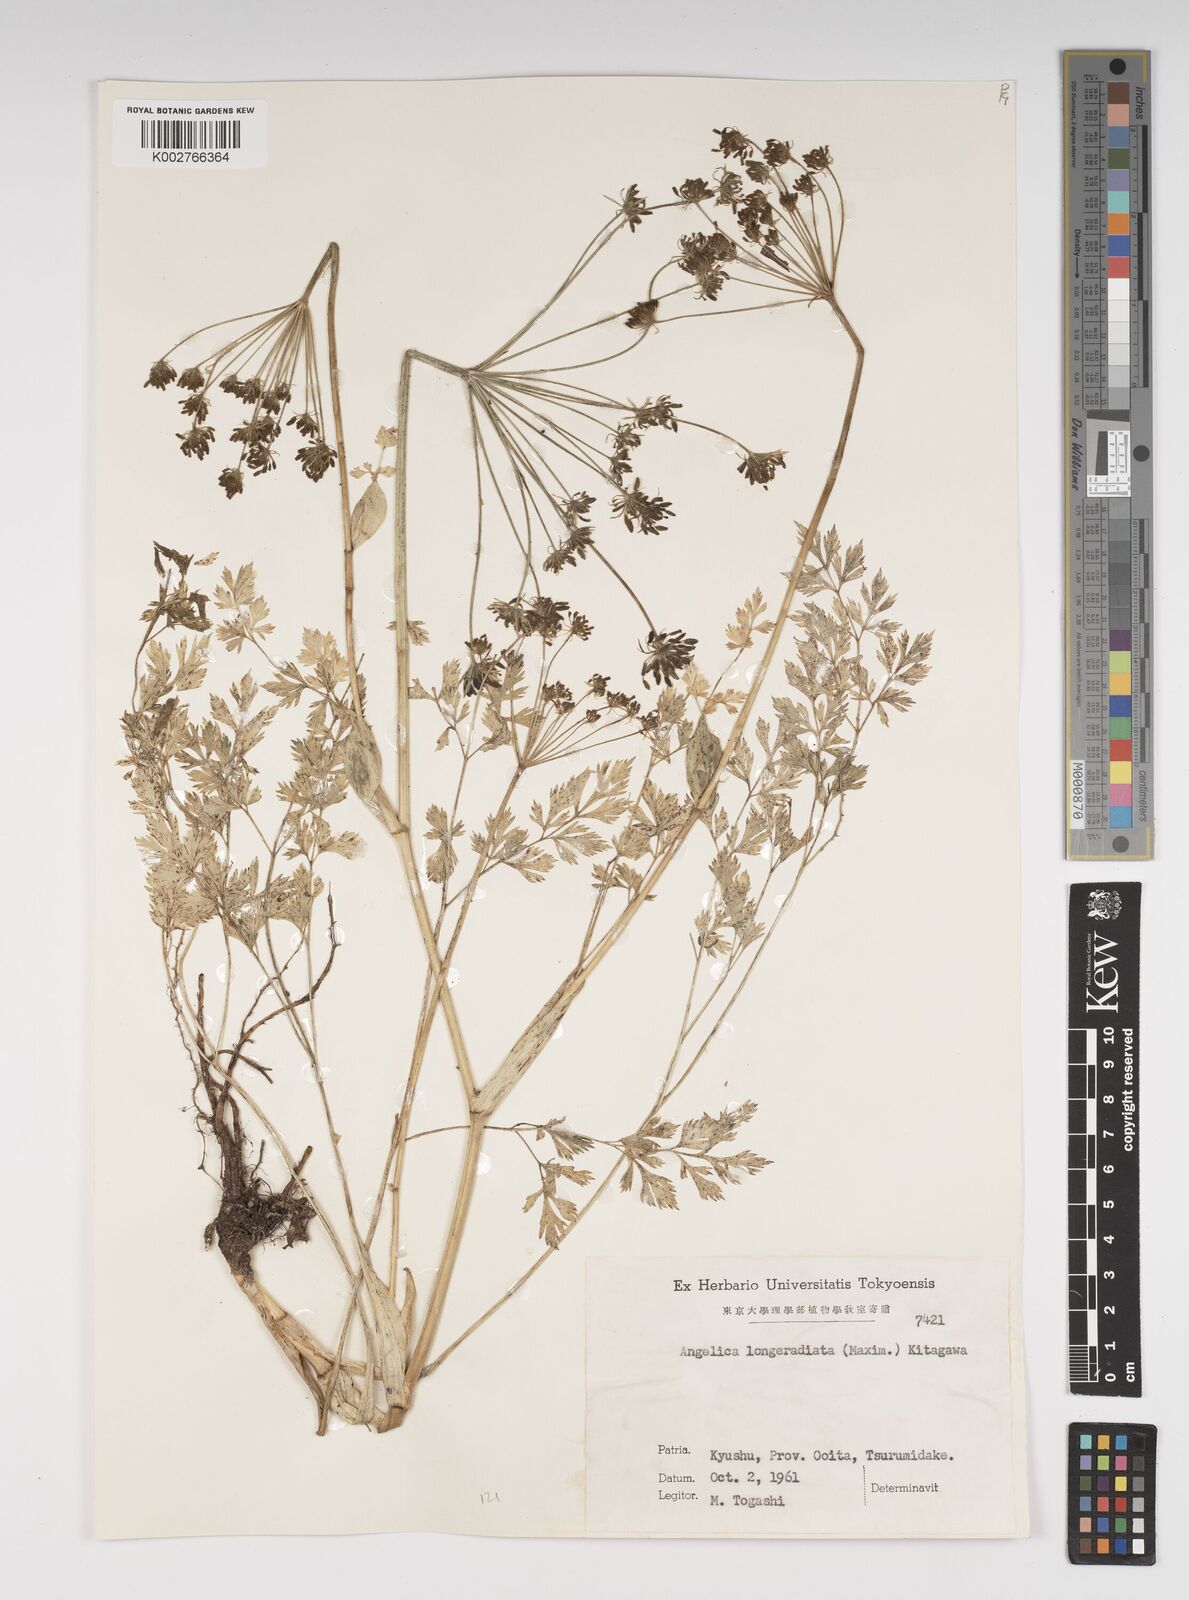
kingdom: Plantae
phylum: Tracheophyta
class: Magnoliopsida
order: Apiales
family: Apiaceae
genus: Angelica
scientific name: Angelica longeradiata
